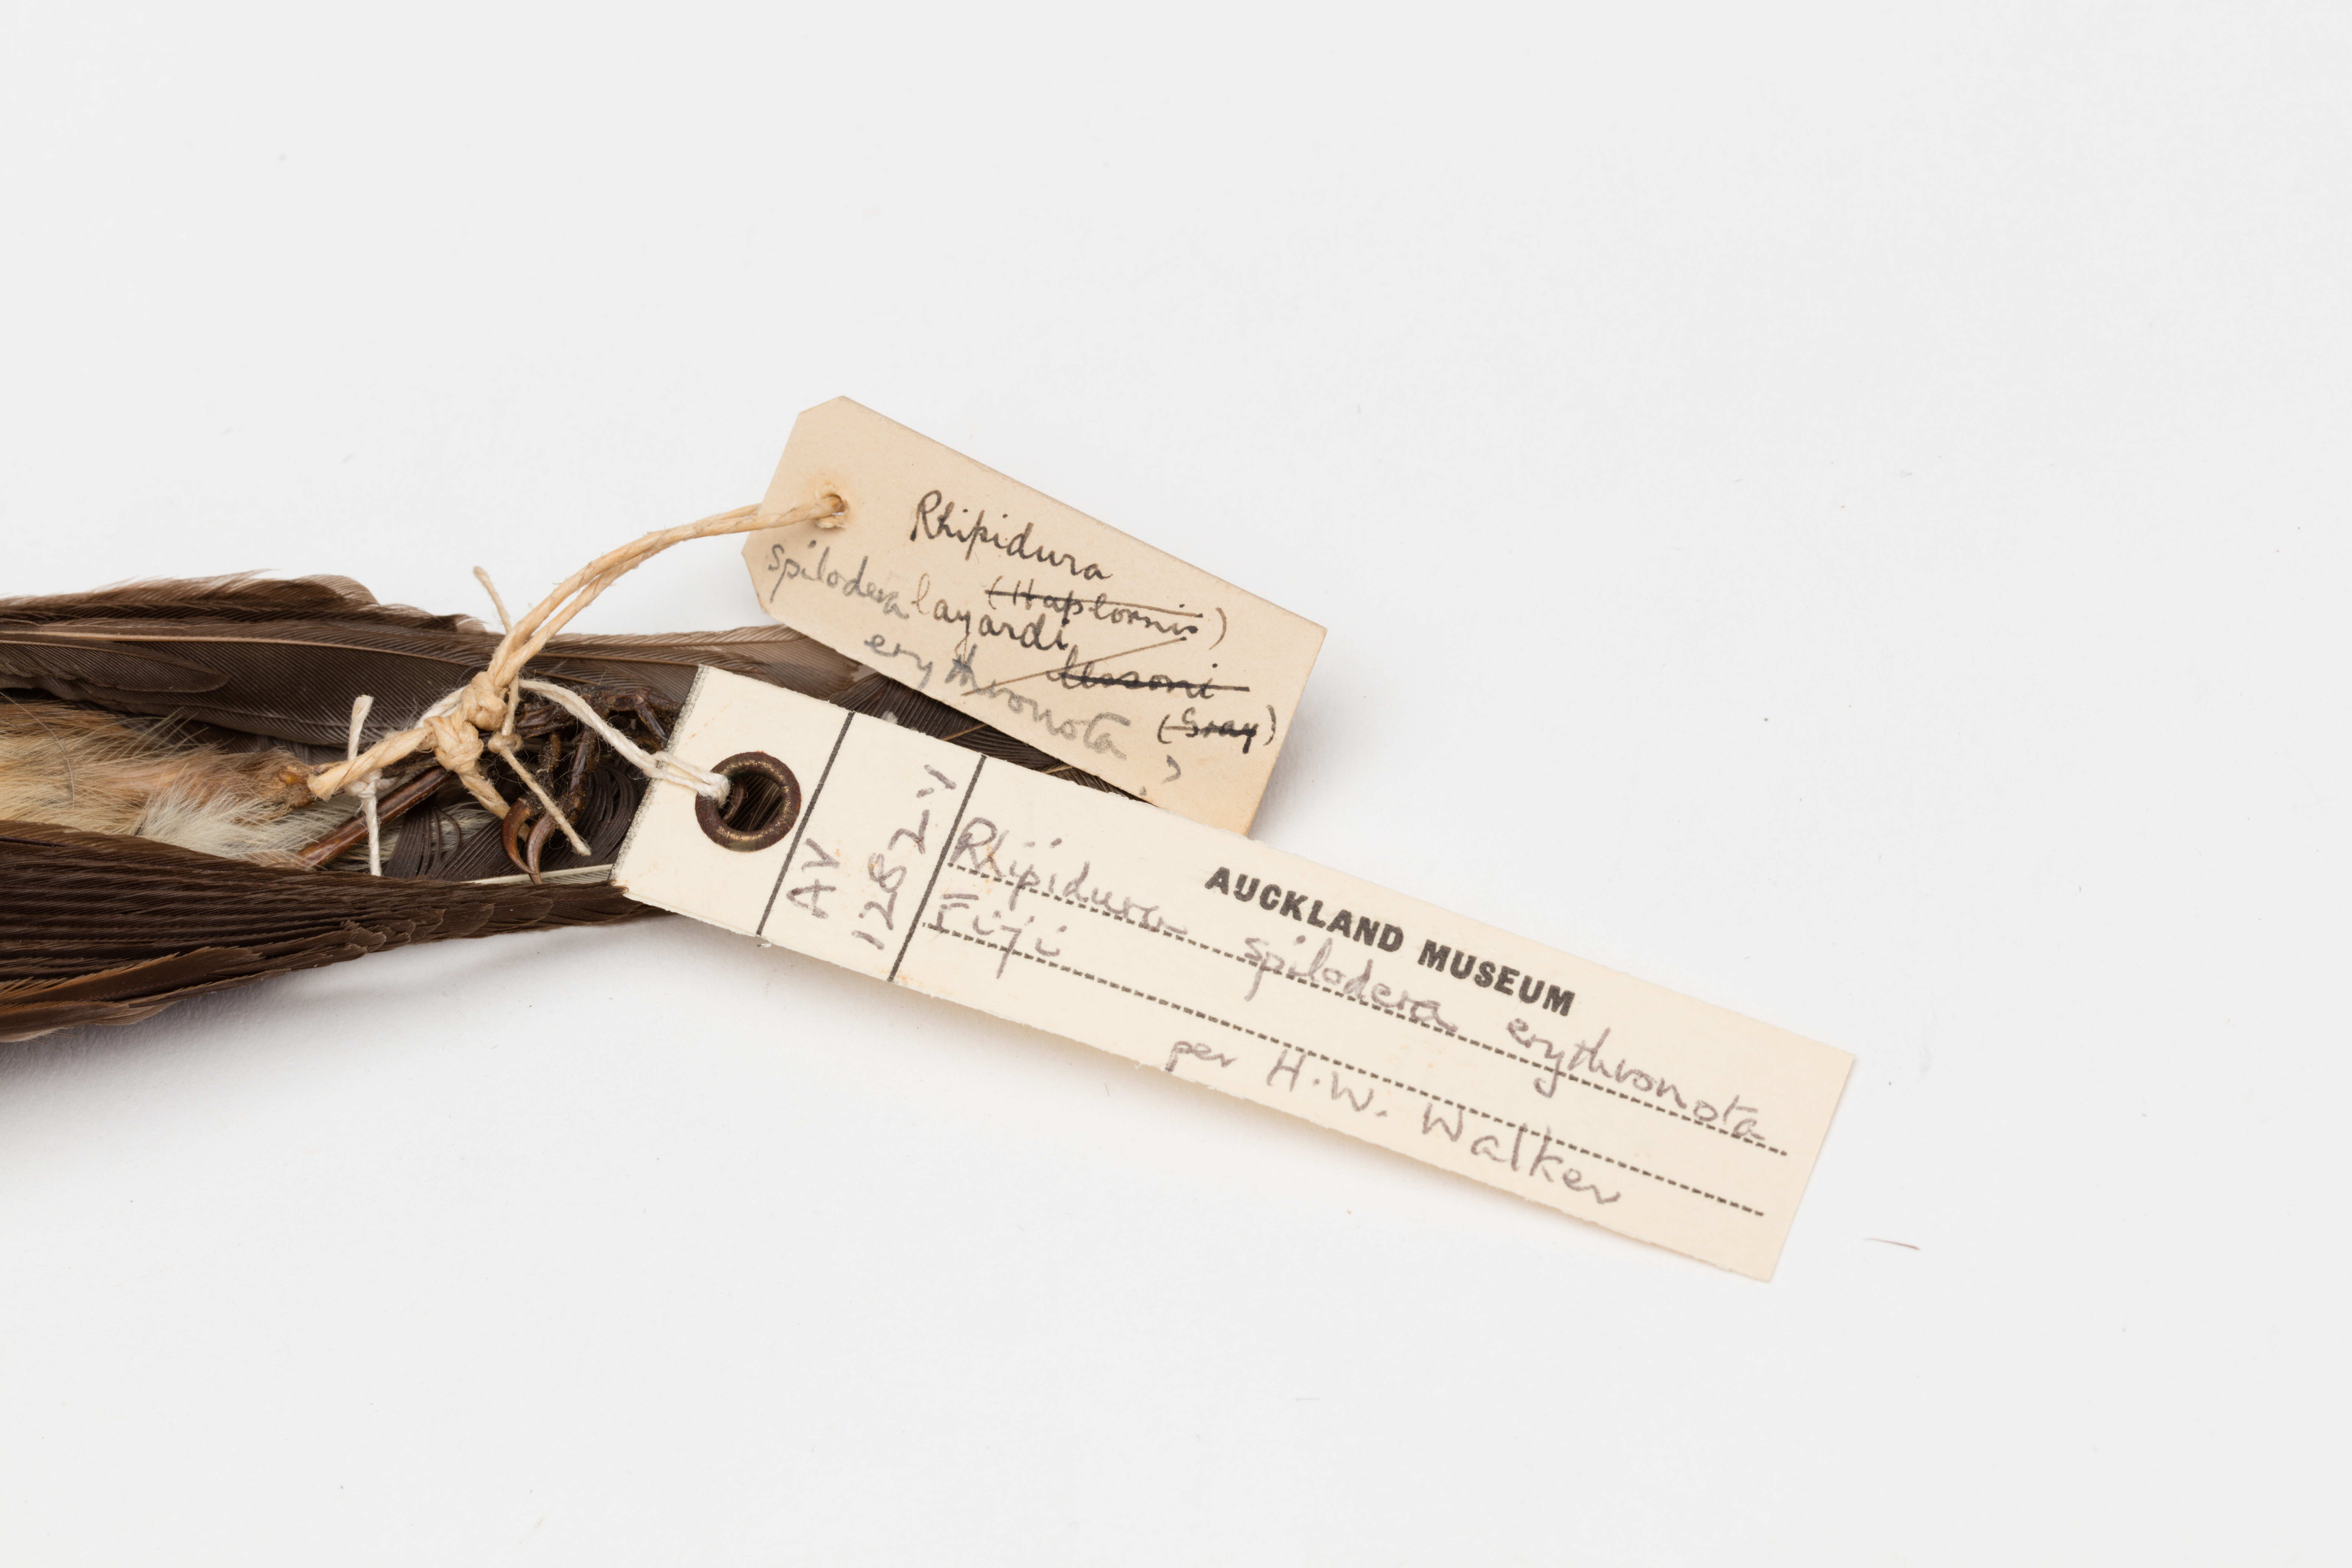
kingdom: Animalia
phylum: Chordata
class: Aves
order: Passeriformes
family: Rhipiduridae
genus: Rhipidura
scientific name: Rhipidura verreauxi
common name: Streaked fantail
